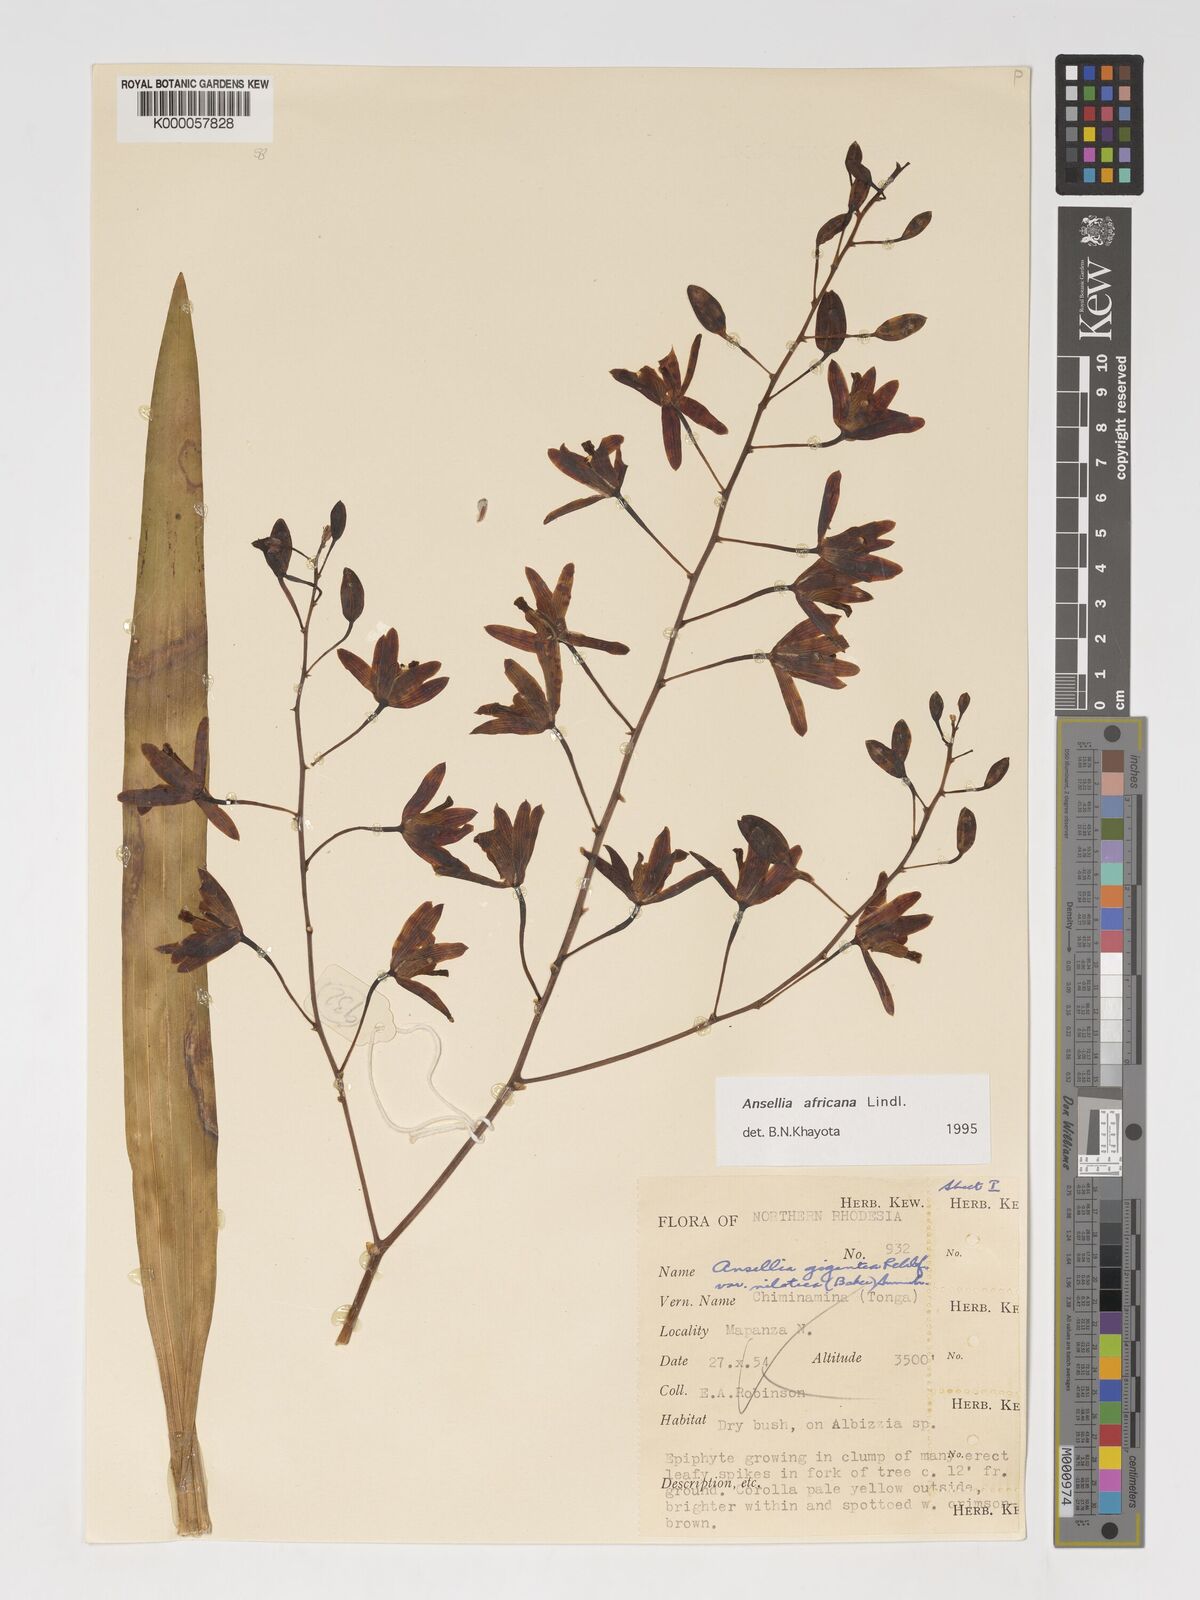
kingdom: Plantae
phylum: Tracheophyta
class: Liliopsida
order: Asparagales
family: Orchidaceae
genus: Ansellia
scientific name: Ansellia africana
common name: African ansellia
